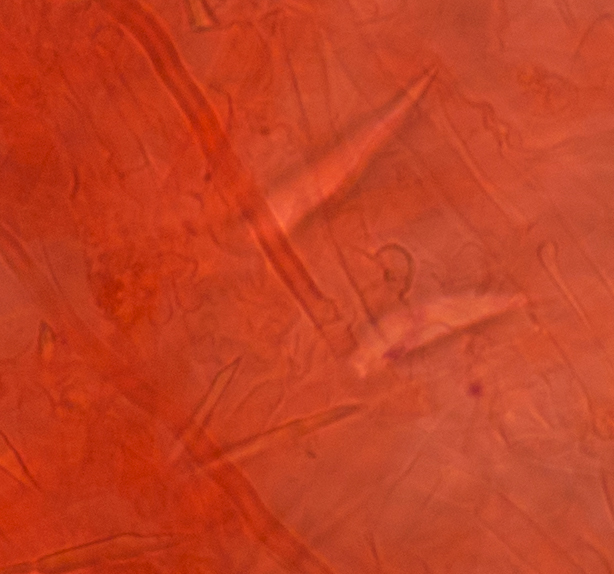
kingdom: Fungi
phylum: Basidiomycota
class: Agaricomycetes
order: Trechisporales
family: Sistotremataceae
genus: Trechispora
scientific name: Trechispora dimitica
